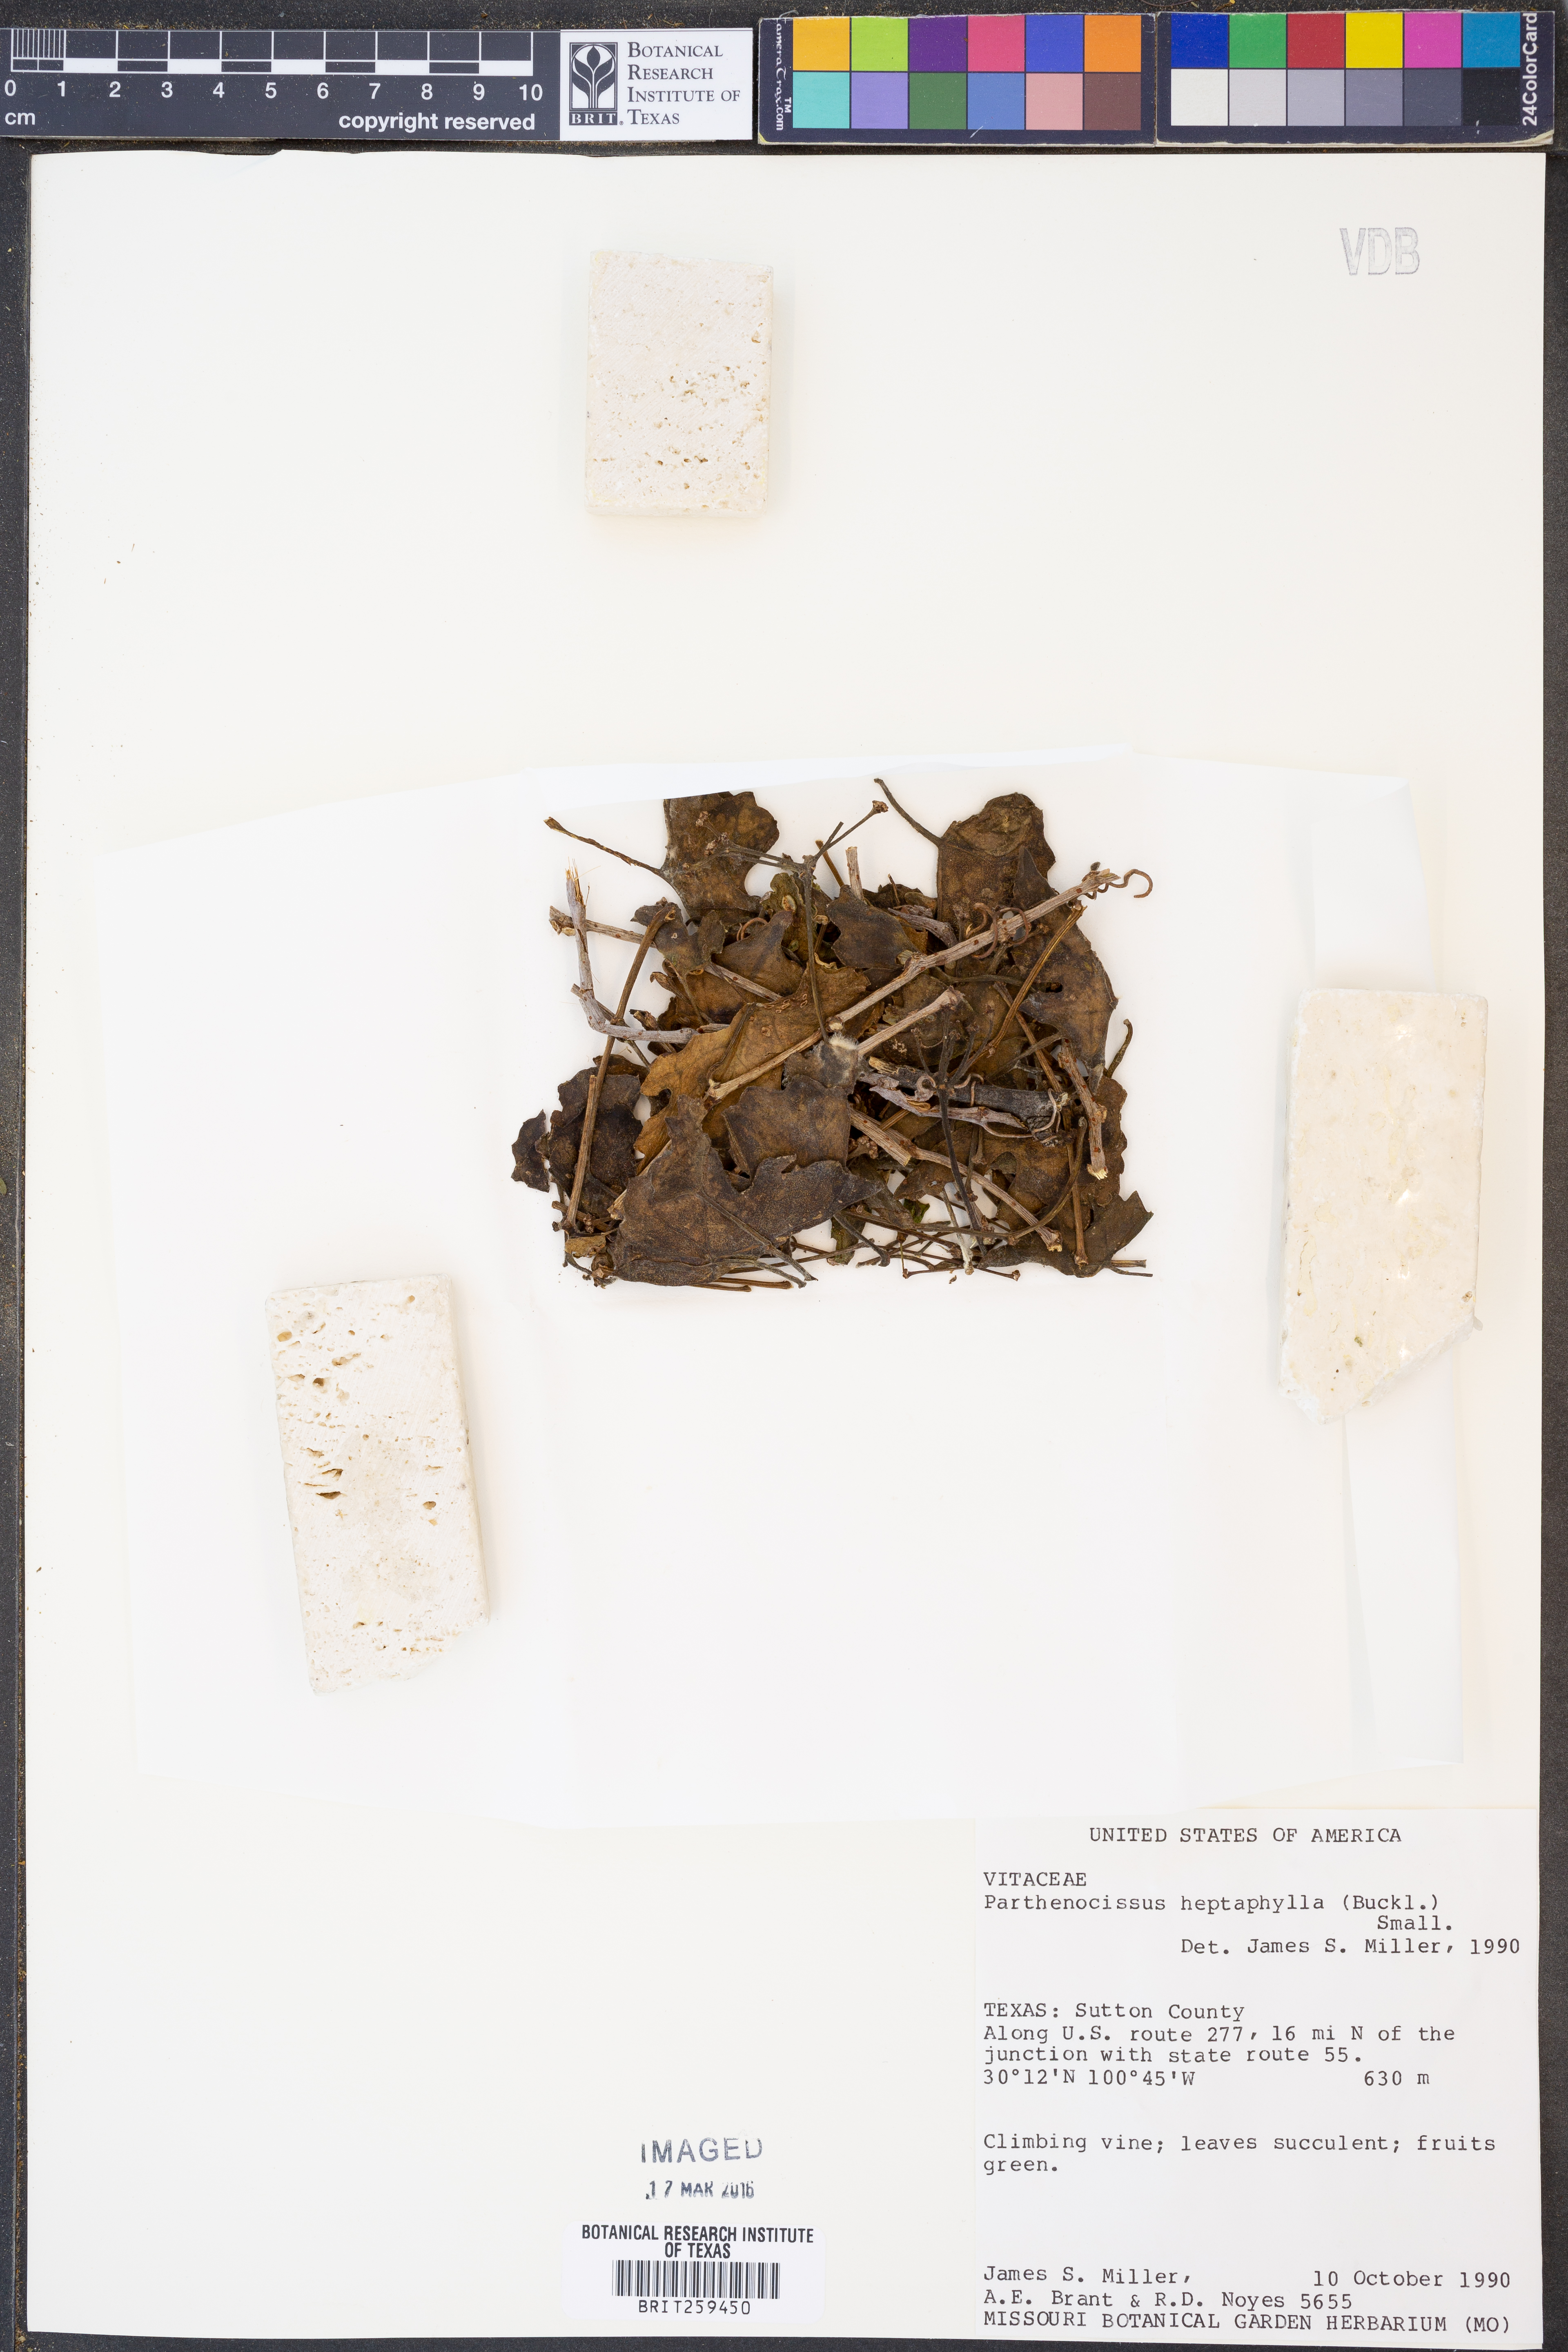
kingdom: Plantae
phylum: Tracheophyta
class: Magnoliopsida
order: Vitales
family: Vitaceae
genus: Parthenocissus
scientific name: Parthenocissus heptaphylla
